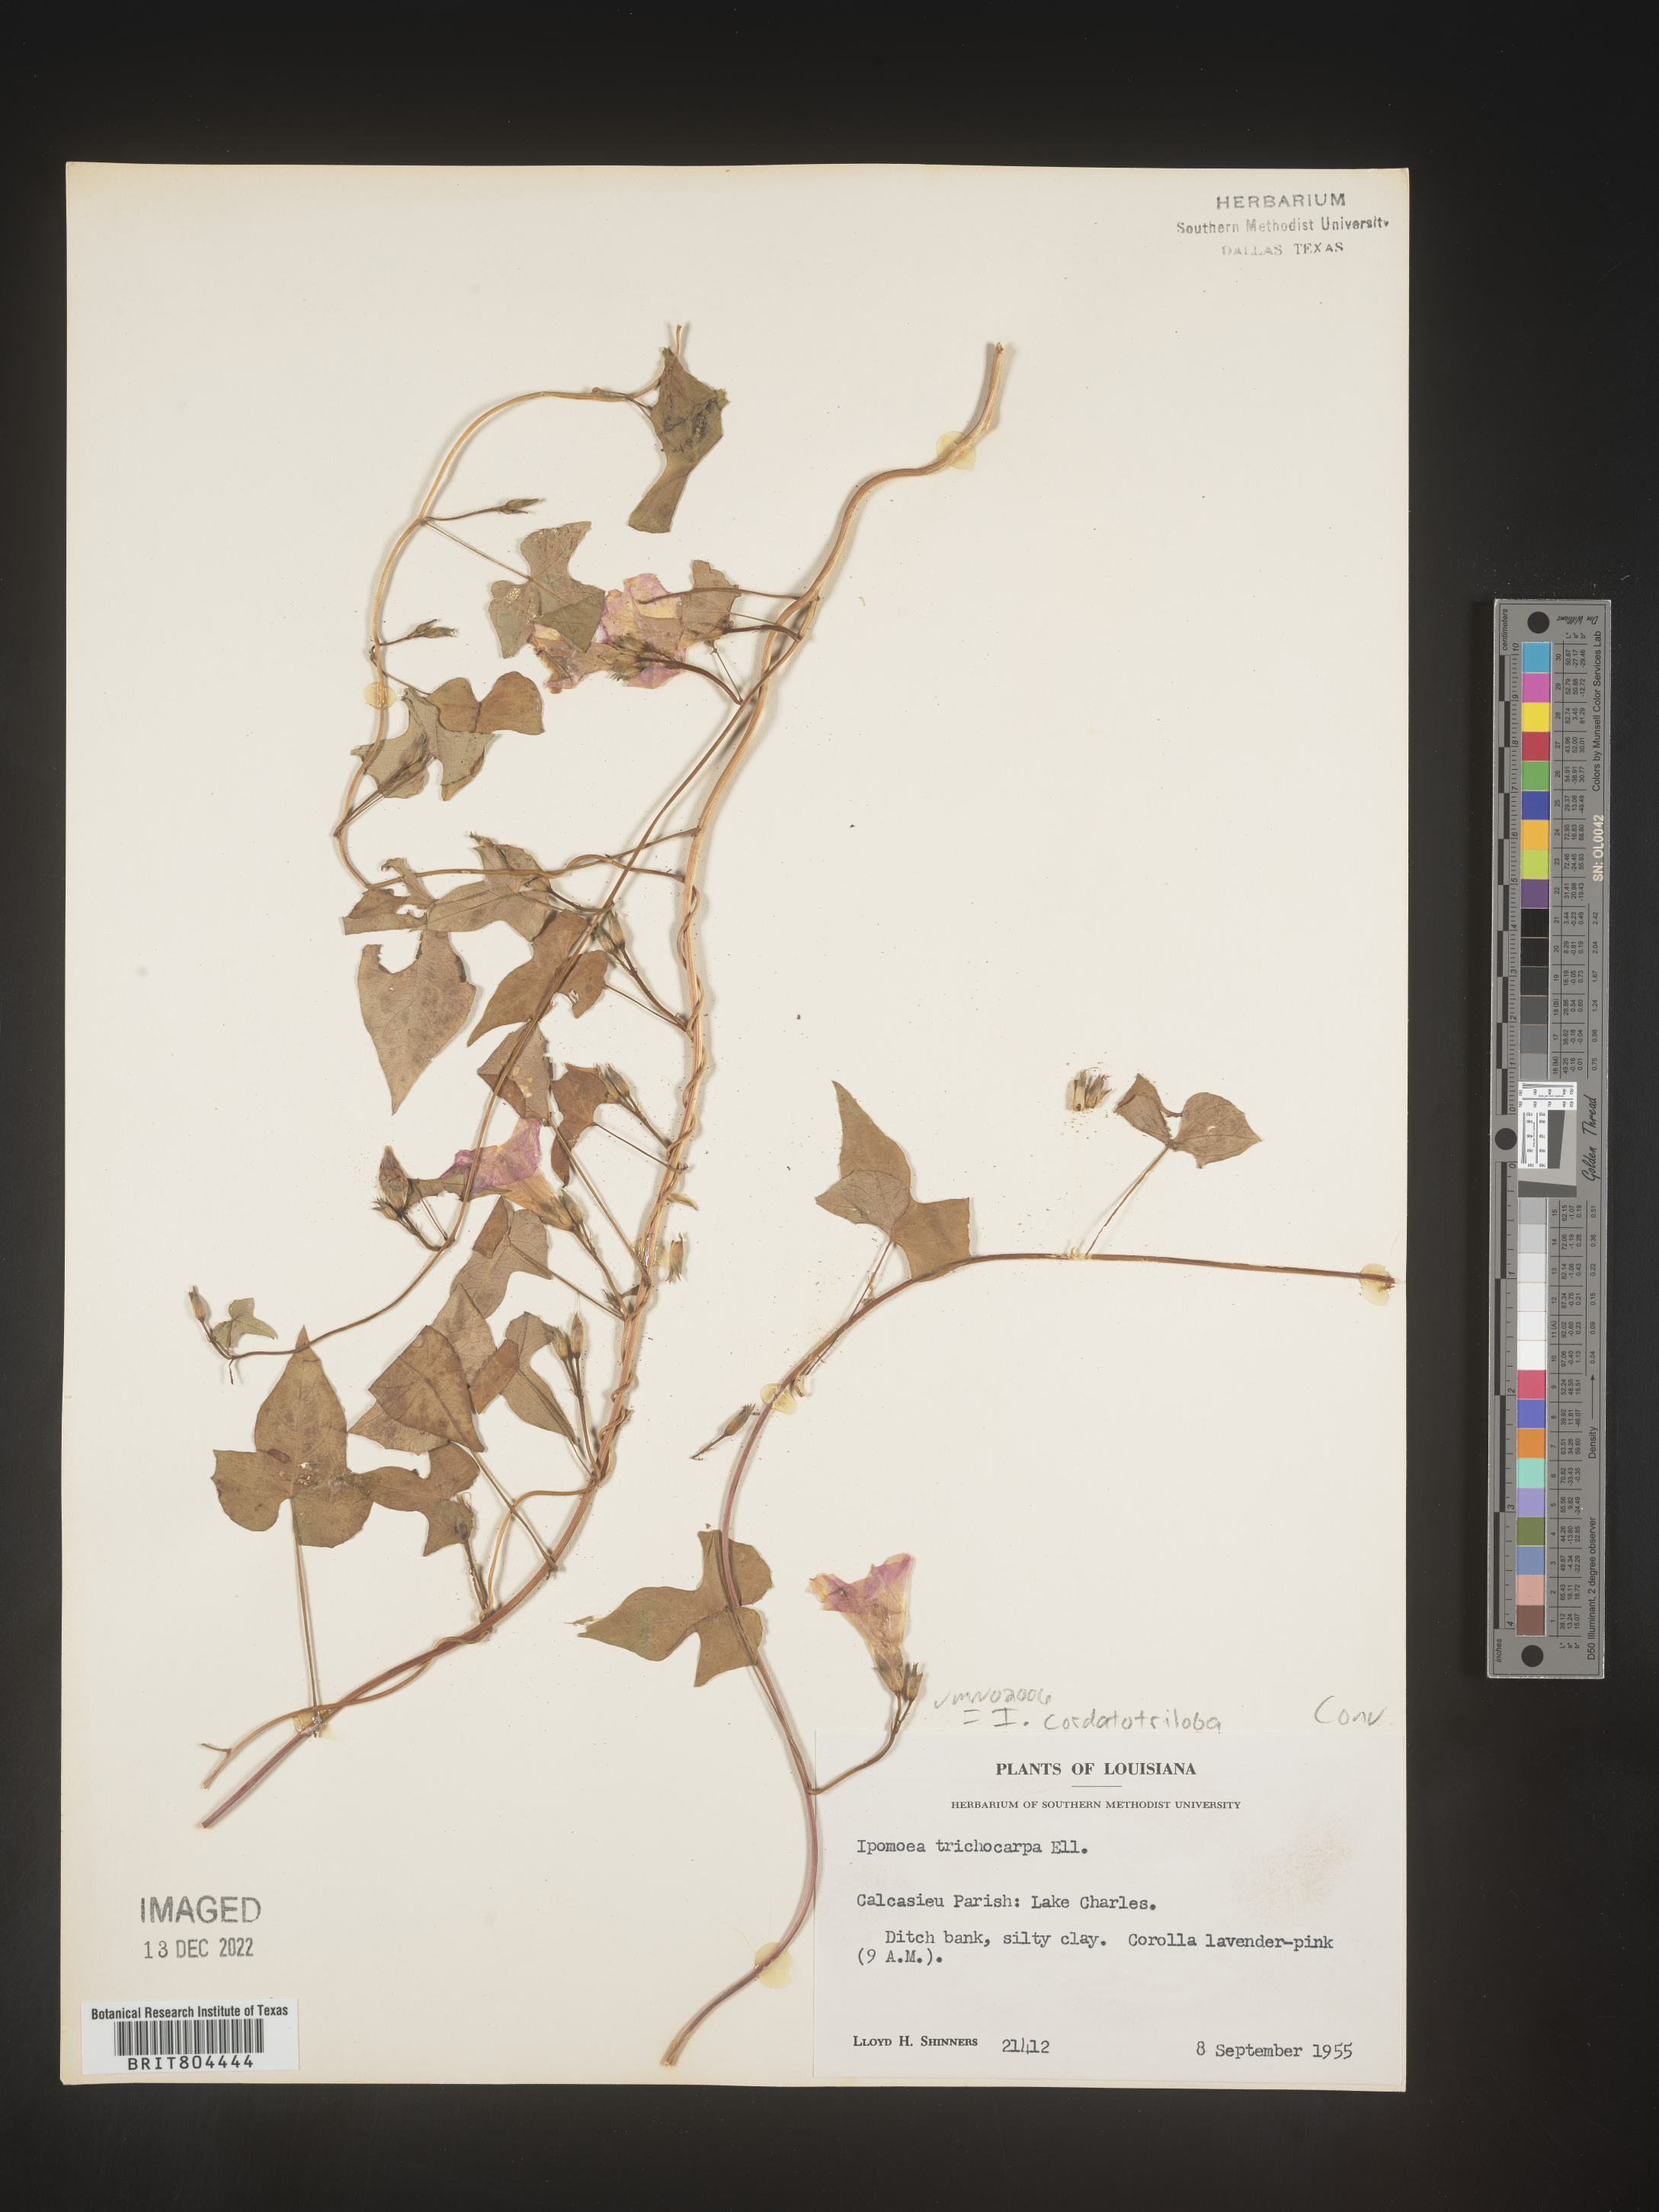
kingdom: Plantae
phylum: Tracheophyta
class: Magnoliopsida
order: Solanales
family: Convolvulaceae
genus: Ipomoea
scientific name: Ipomoea cordatotriloba
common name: Cotton morning glory
